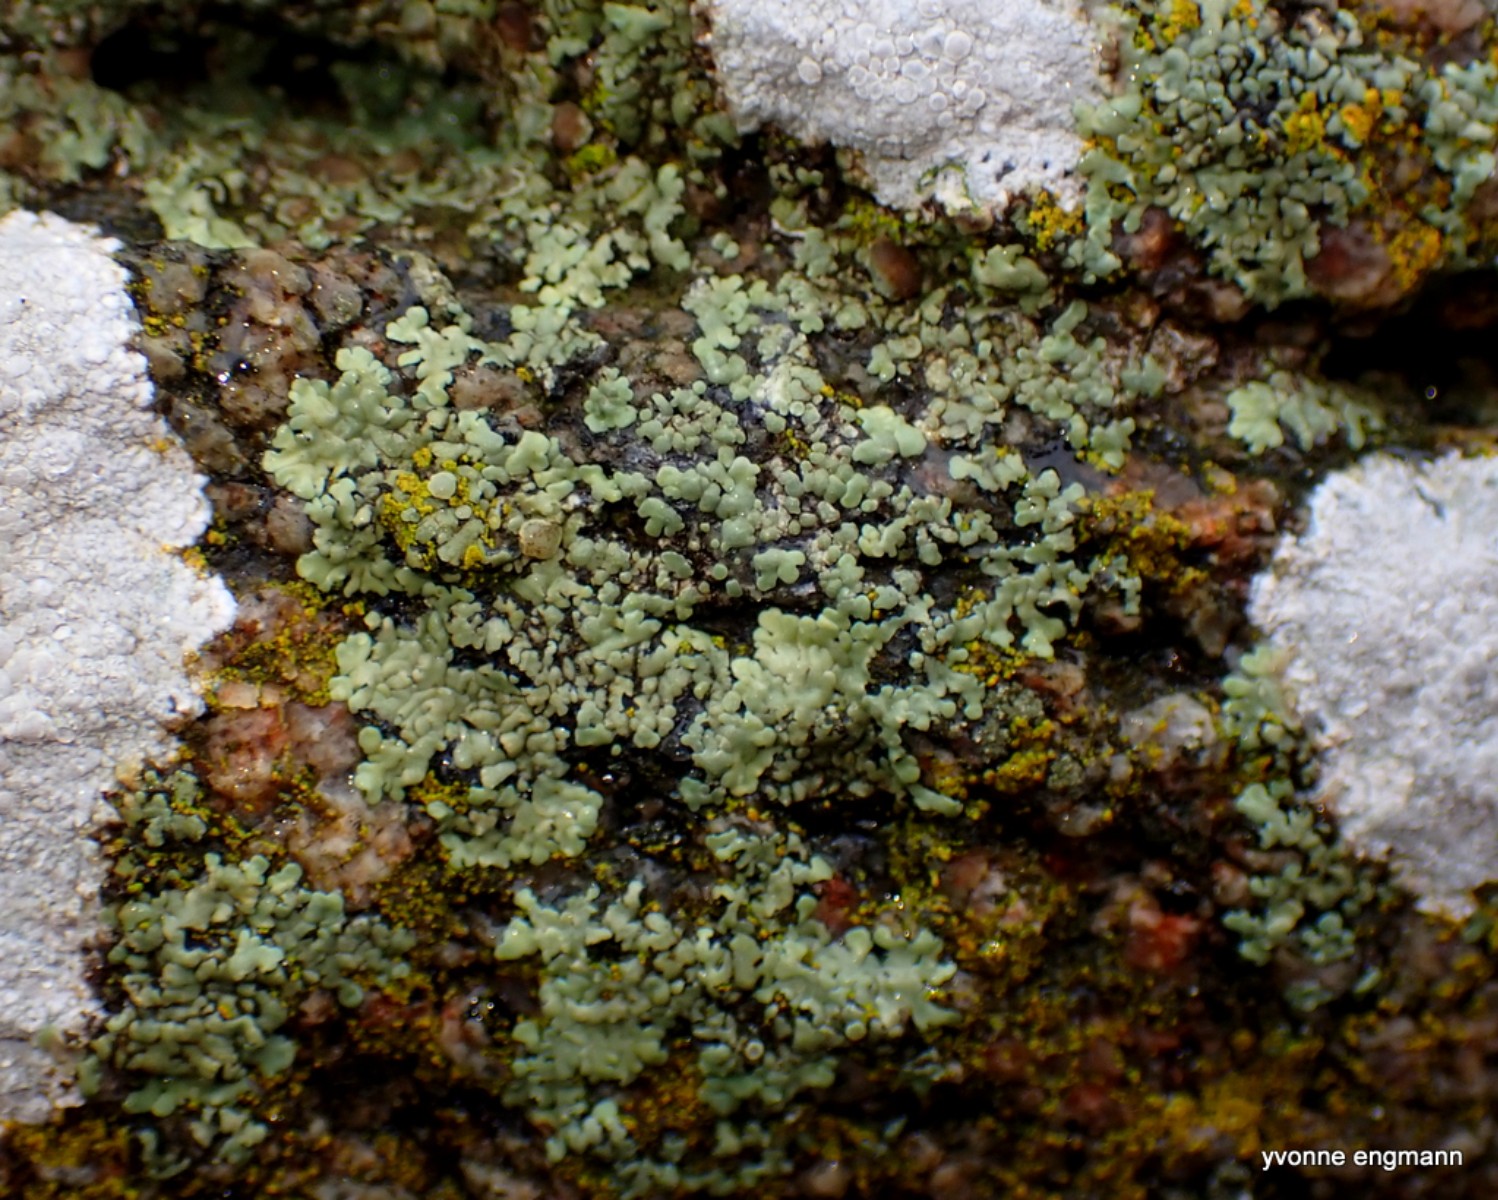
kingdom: Fungi
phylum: Ascomycota
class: Lecanoromycetes
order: Lecanorales
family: Lecanoraceae
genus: Protoparmeliopsis
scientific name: Protoparmeliopsis muralis
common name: randfliget kantskivelav
